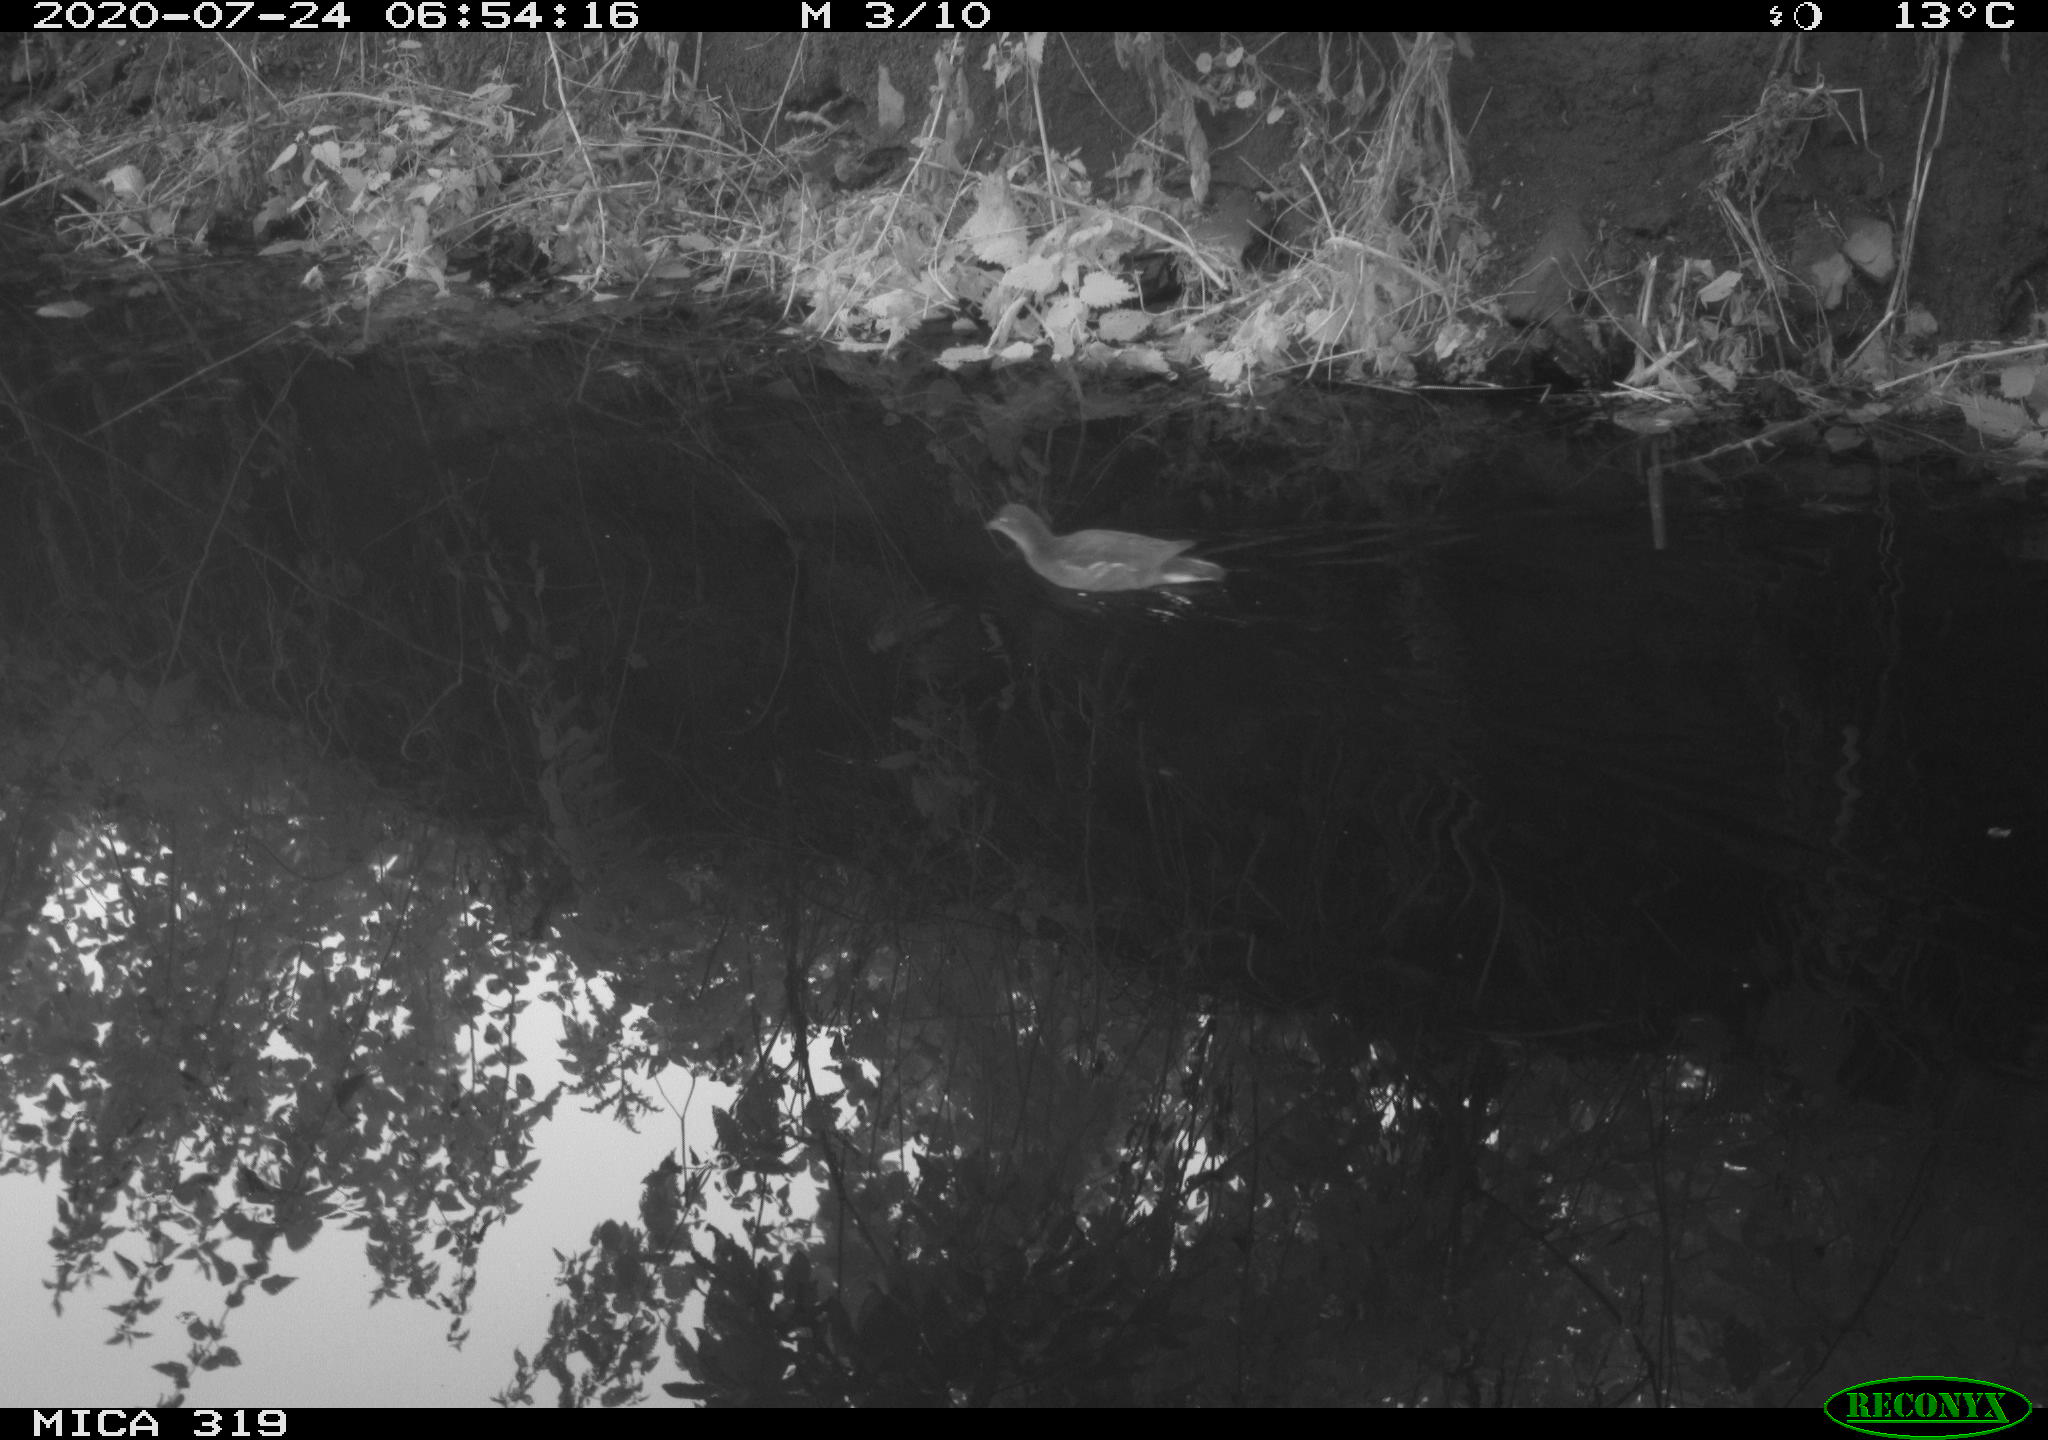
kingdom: Animalia
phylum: Chordata
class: Aves
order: Gruiformes
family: Rallidae
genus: Gallinula
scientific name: Gallinula chloropus
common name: Common moorhen
